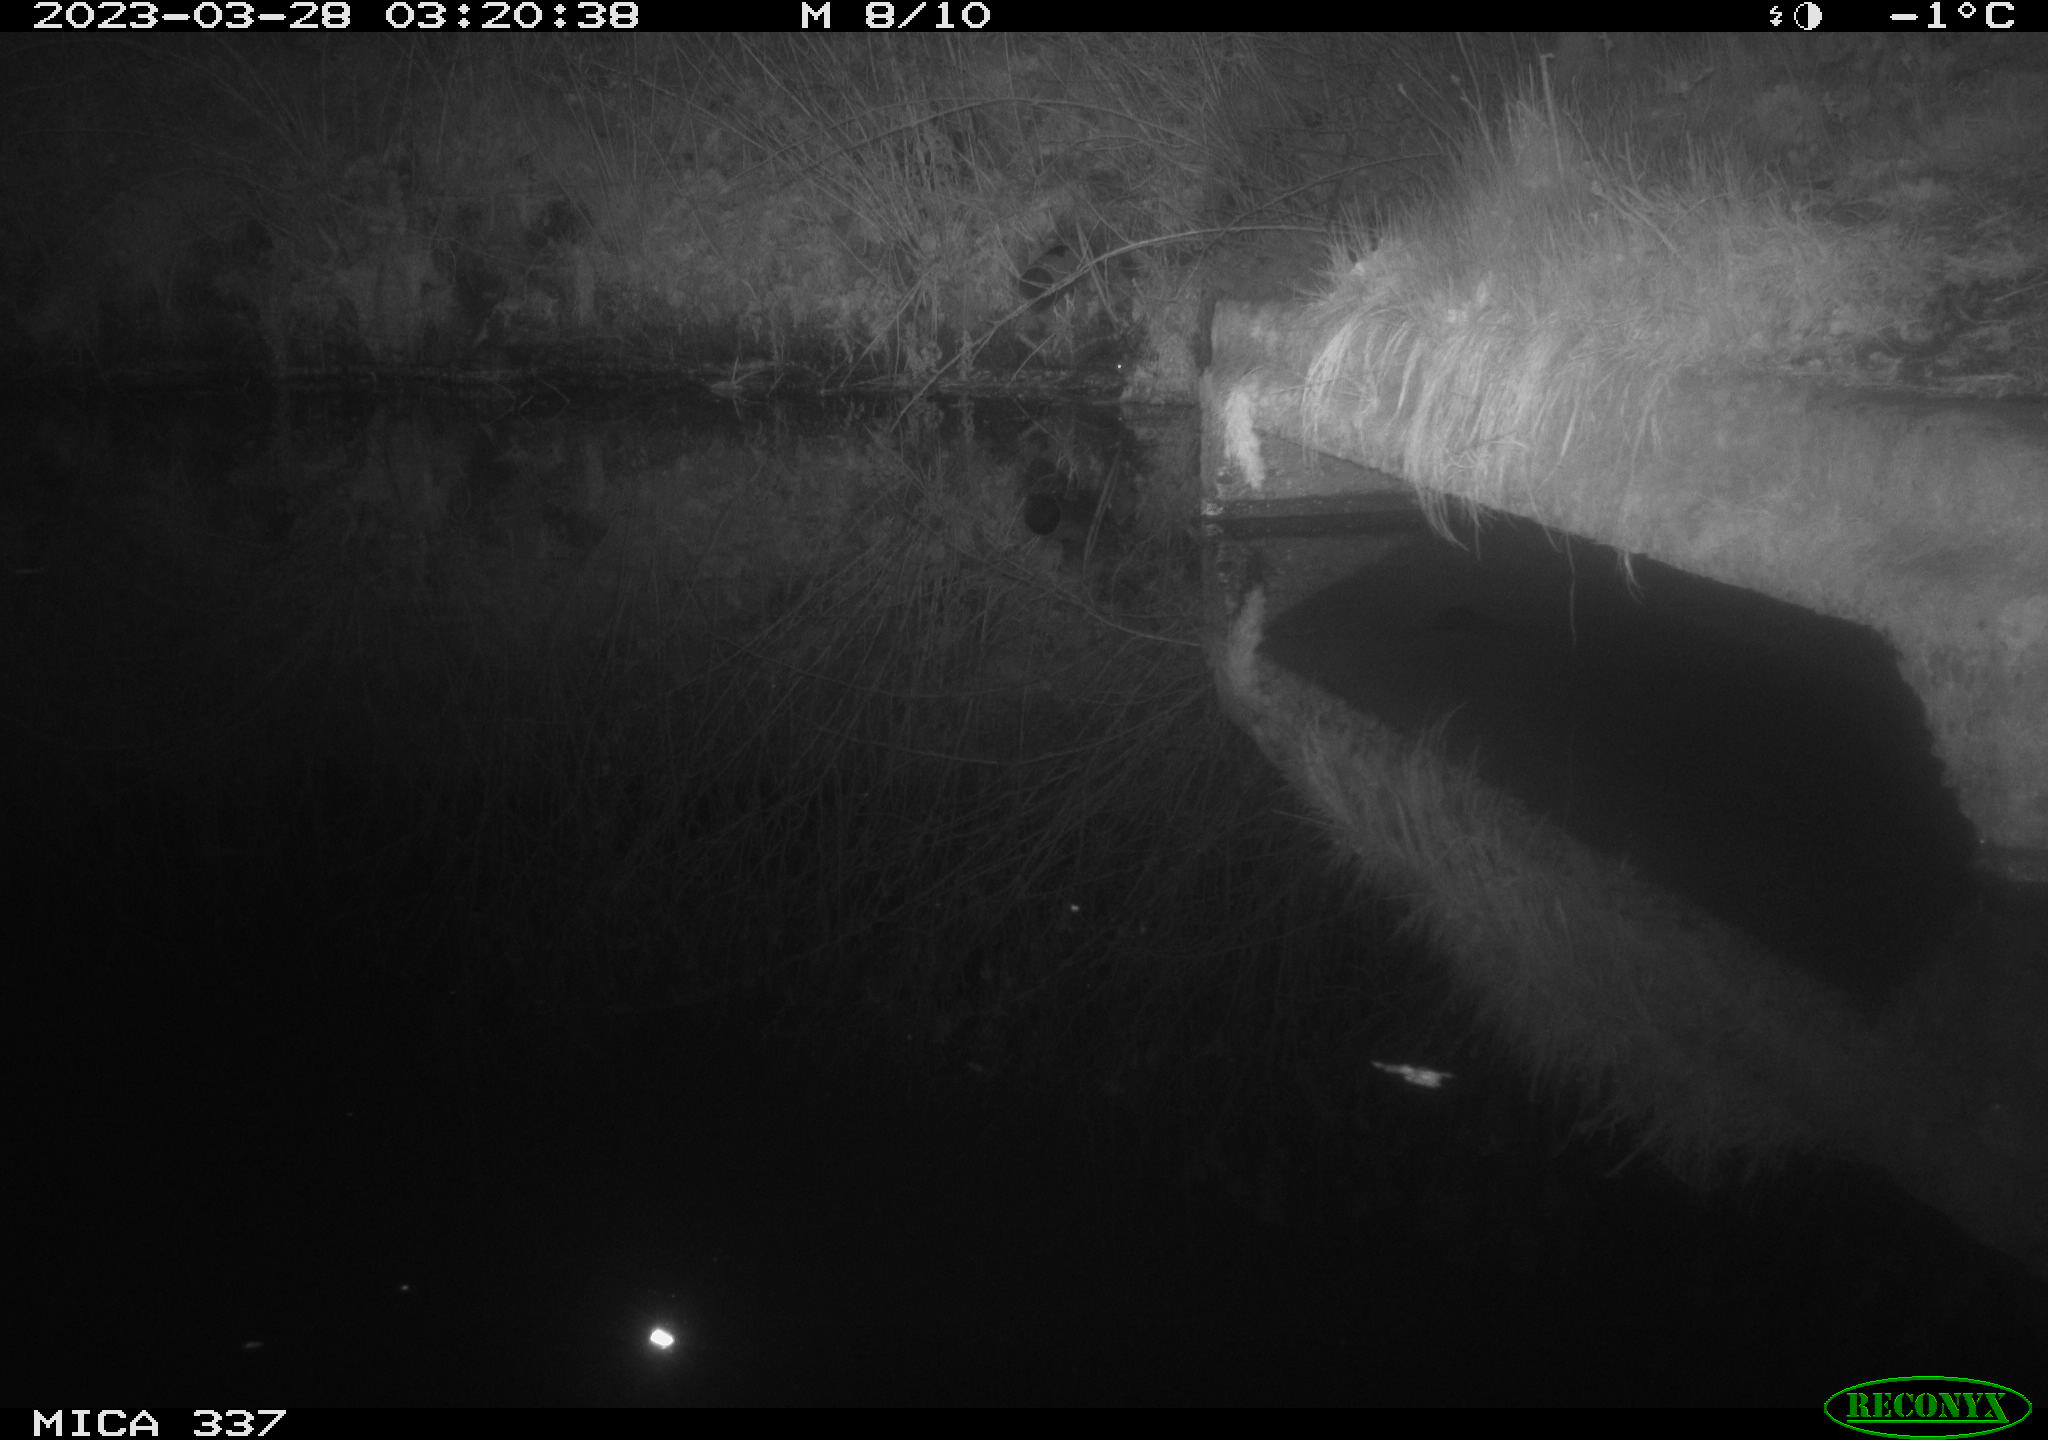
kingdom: Animalia
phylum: Chordata
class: Mammalia
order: Carnivora
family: Mustelidae
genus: Martes
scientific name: Martes foina
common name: Beech marten
